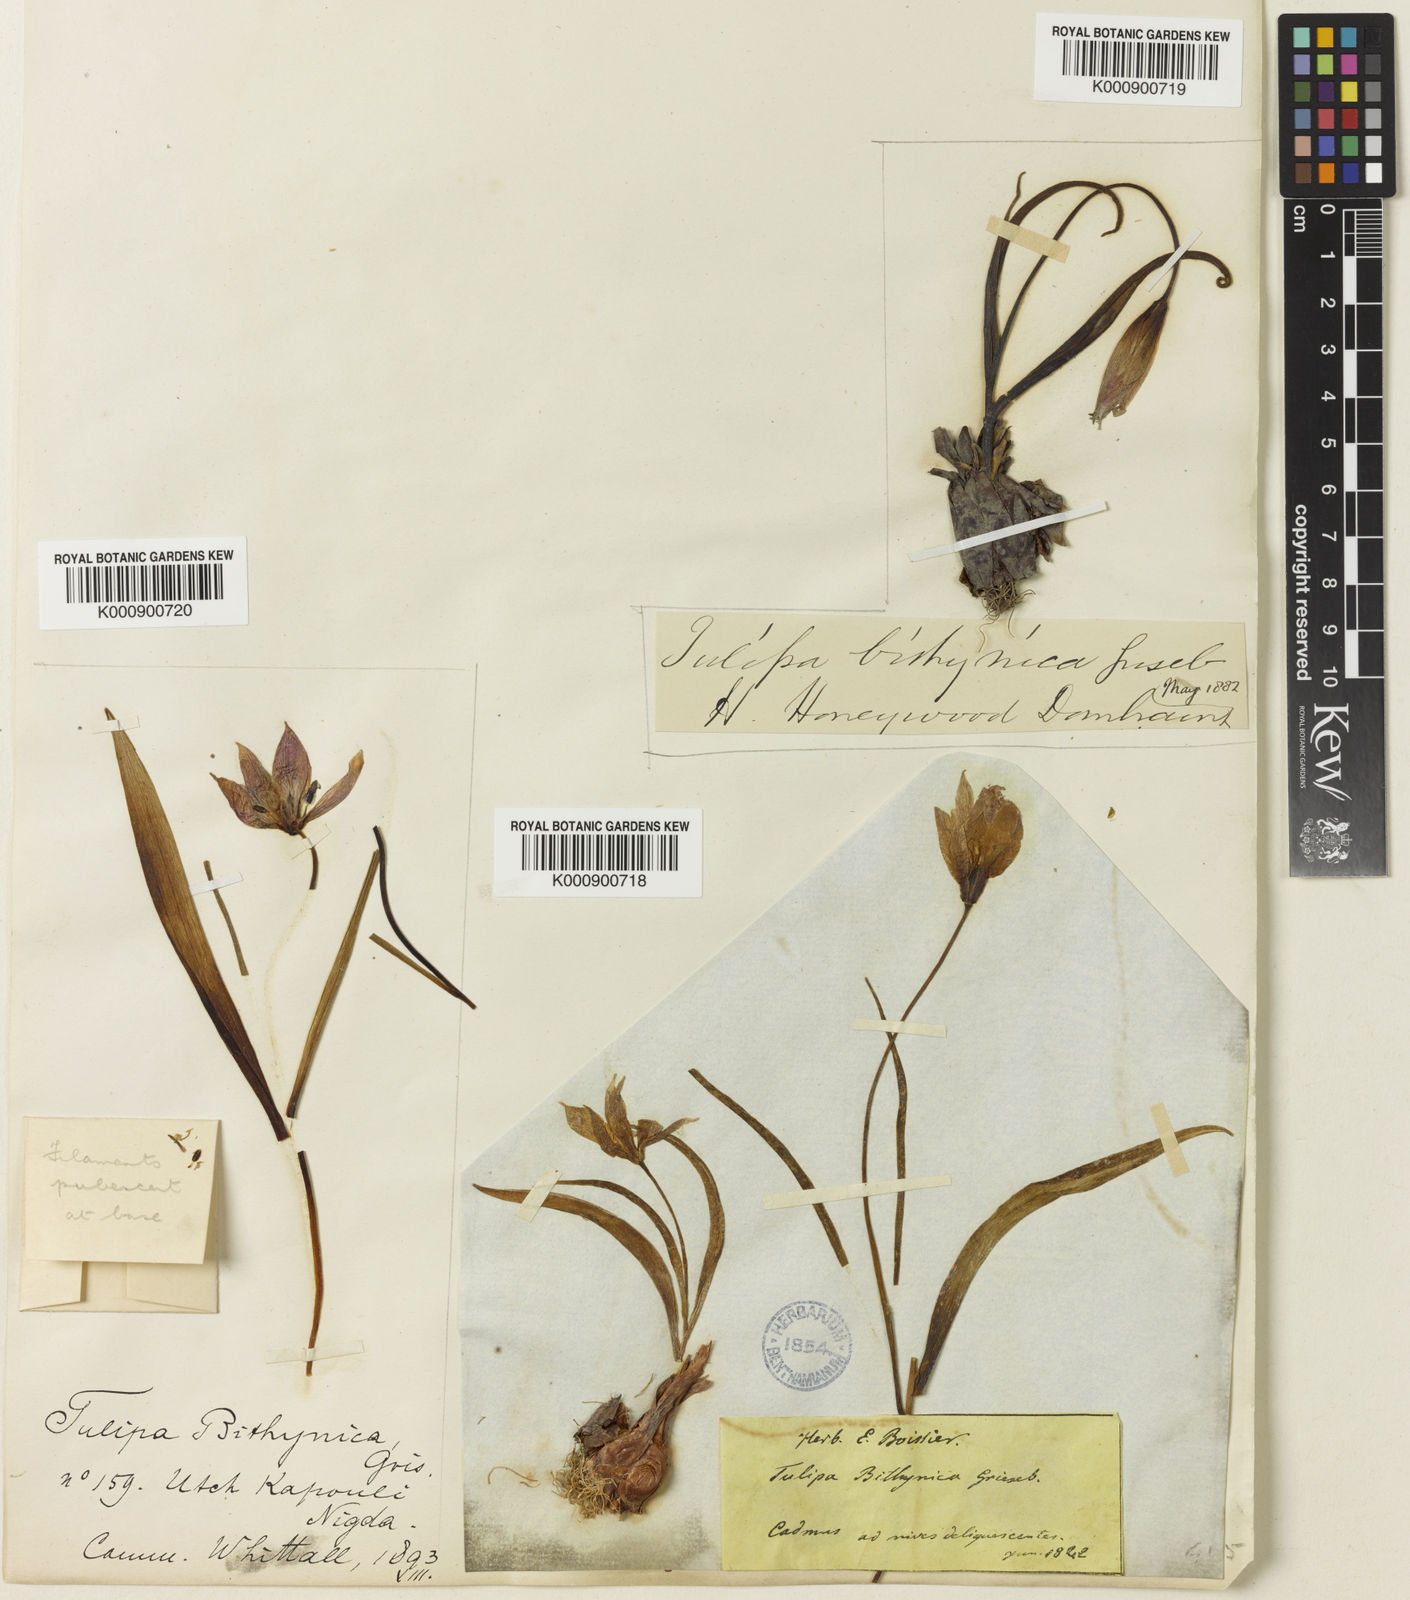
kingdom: Plantae
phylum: Tracheophyta
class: Liliopsida
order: Liliales
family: Liliaceae
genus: Tulipa
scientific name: Tulipa orphanidea
